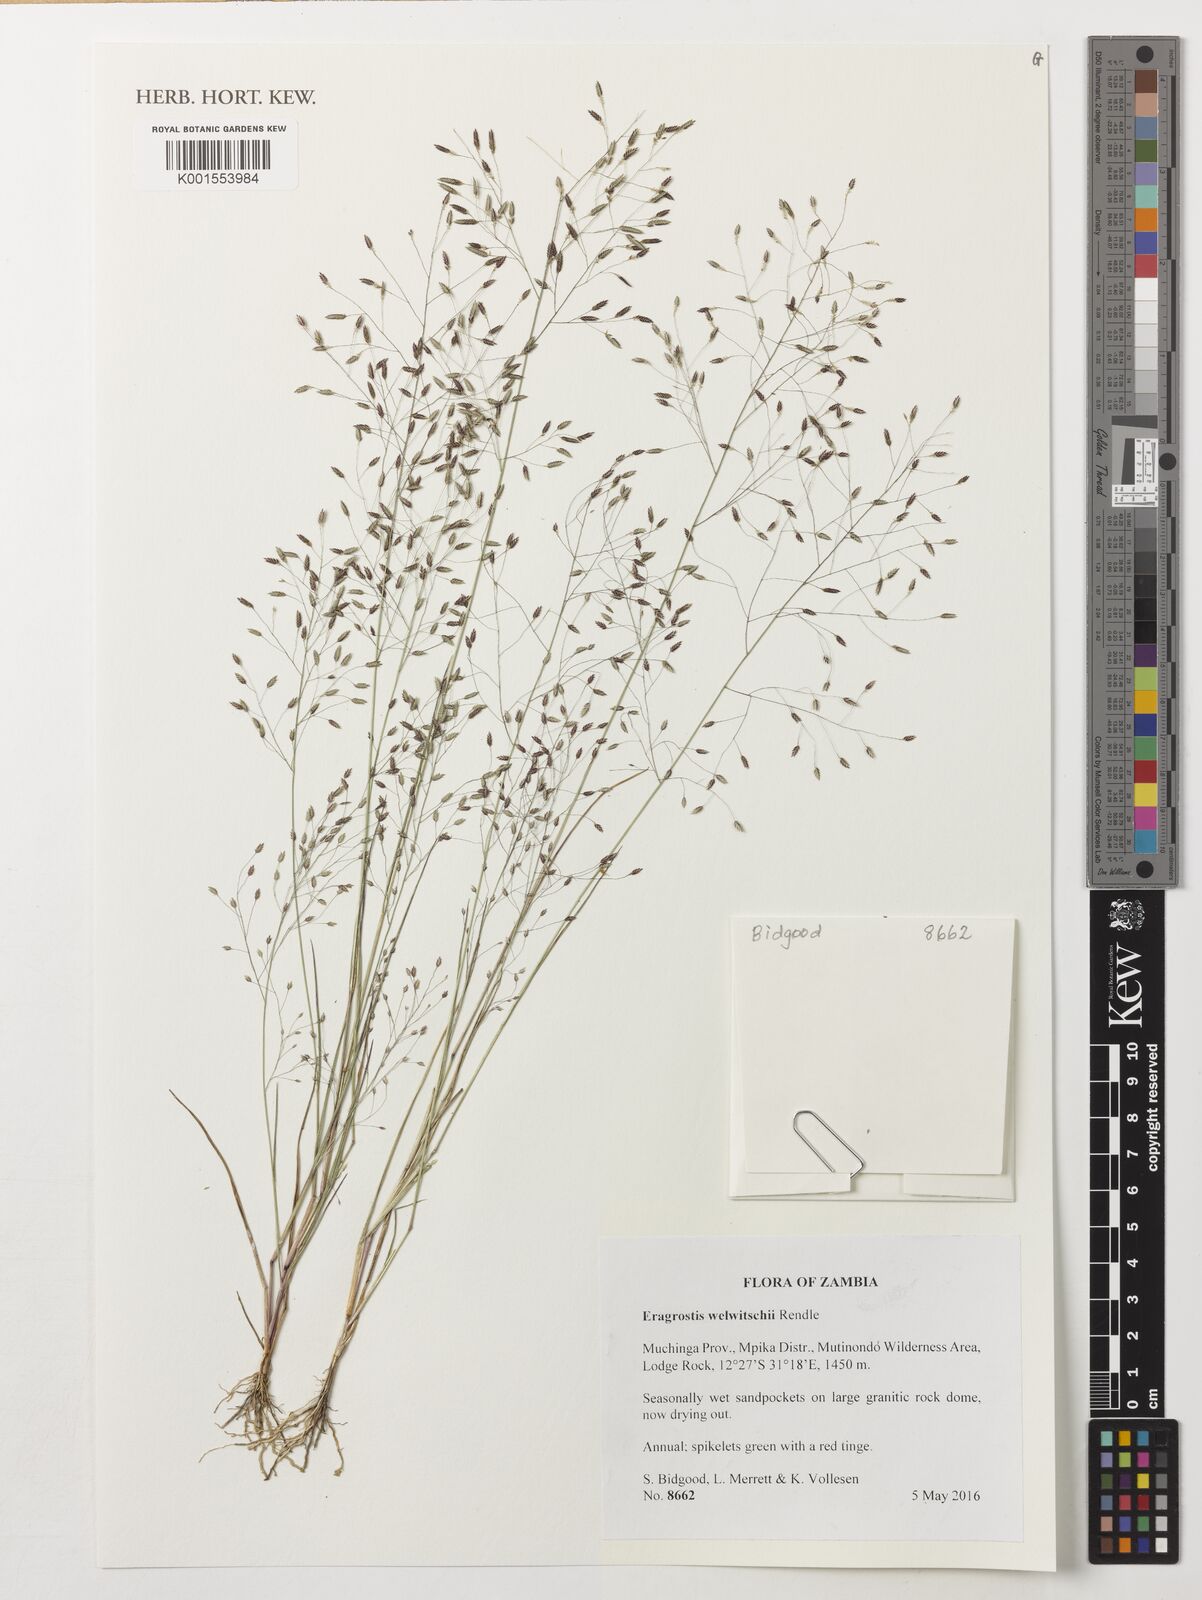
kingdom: Plantae
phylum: Tracheophyta
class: Liliopsida
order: Poales
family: Poaceae
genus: Eragrostis
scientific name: Eragrostis welwitschii
